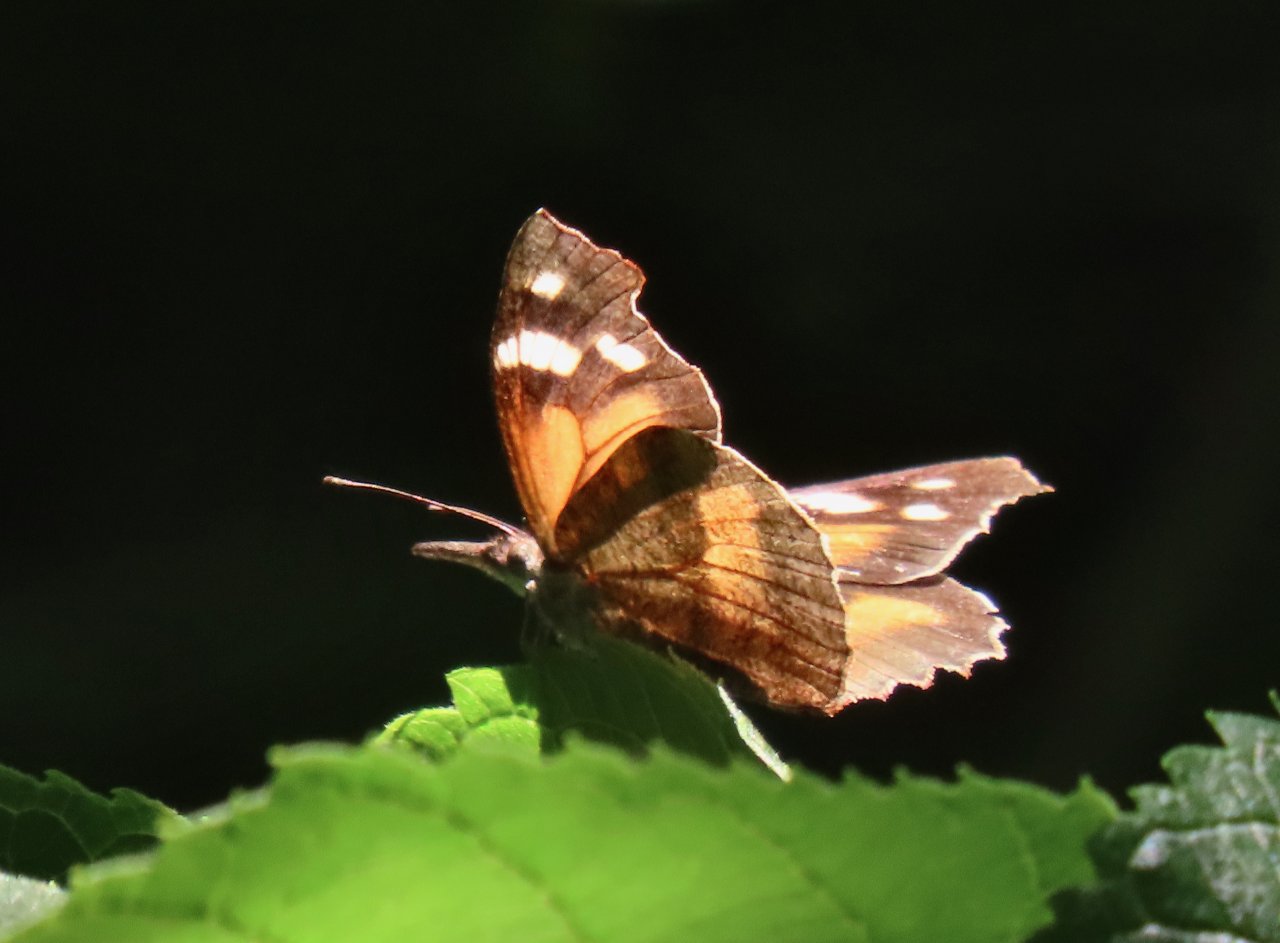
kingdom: Animalia
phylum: Arthropoda
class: Insecta
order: Lepidoptera
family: Nymphalidae
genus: Libytheana
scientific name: Libytheana carinenta
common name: American Snout
